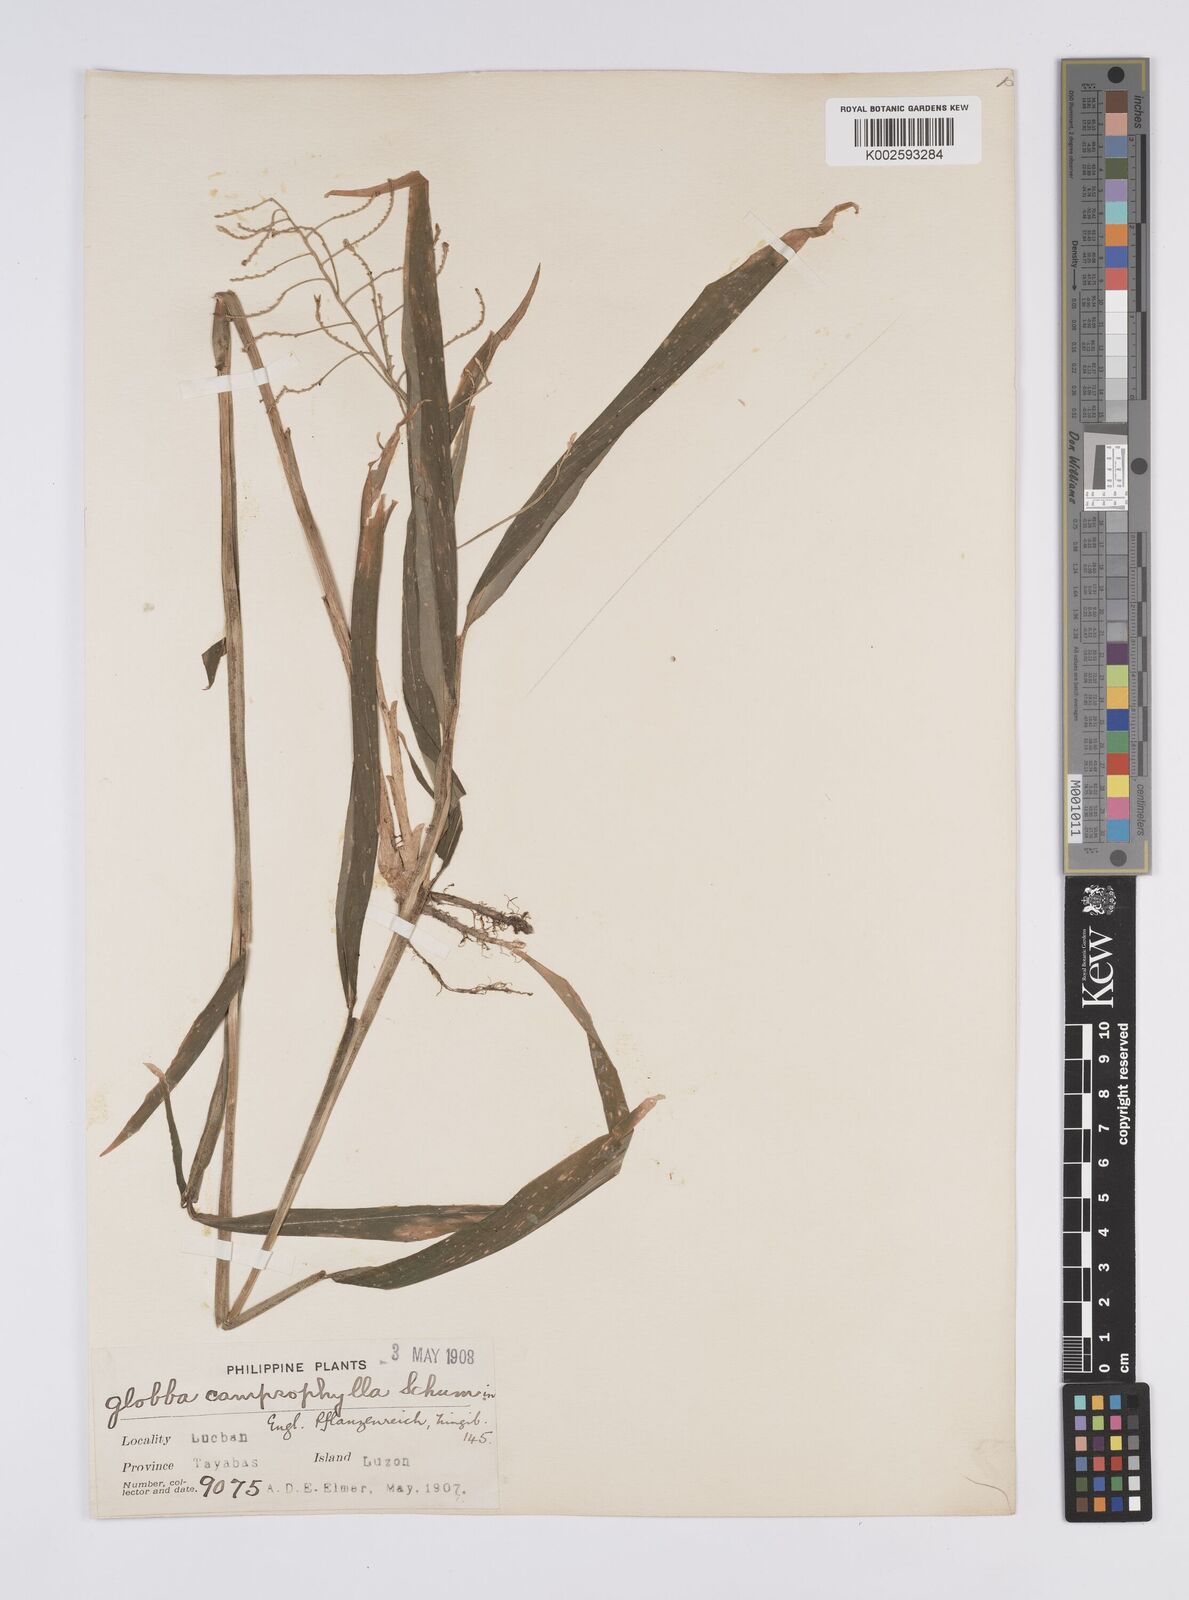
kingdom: Plantae
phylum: Tracheophyta
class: Liliopsida
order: Zingiberales
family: Zingiberaceae
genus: Globba
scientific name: Globba campsophylla
